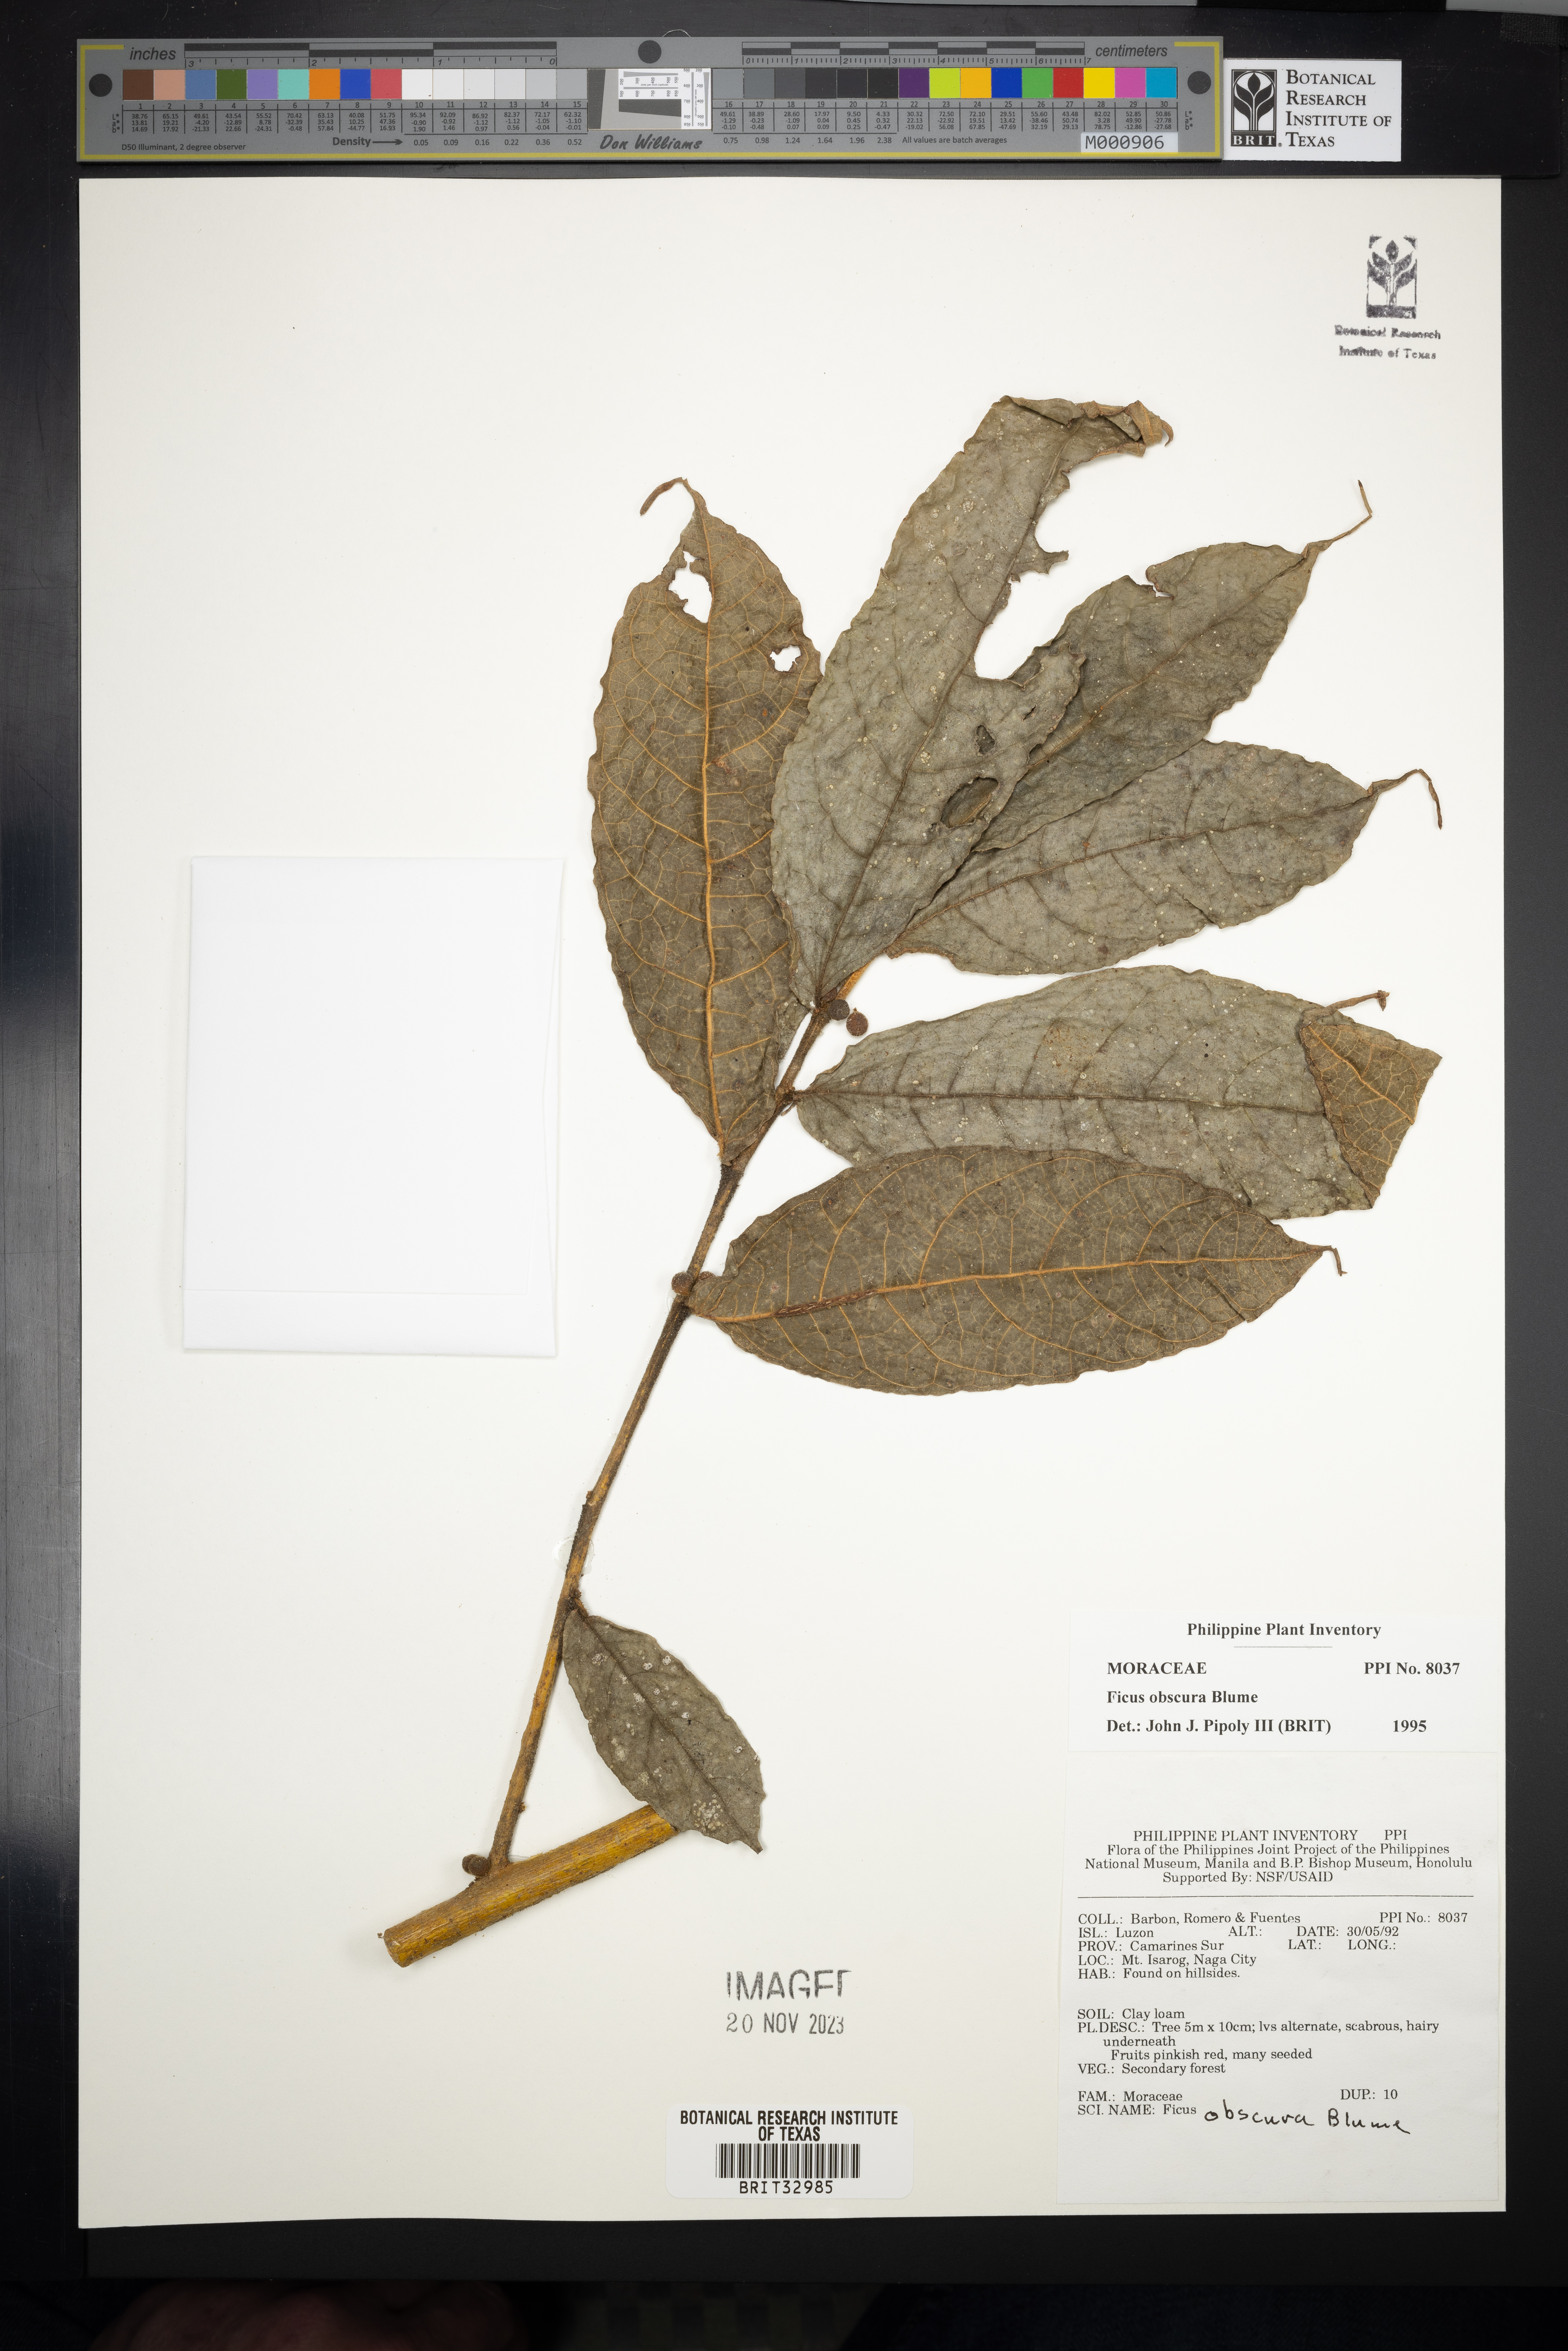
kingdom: Plantae
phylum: Tracheophyta
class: Magnoliopsida
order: Rosales
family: Moraceae
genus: Ficus
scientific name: Ficus obscura
